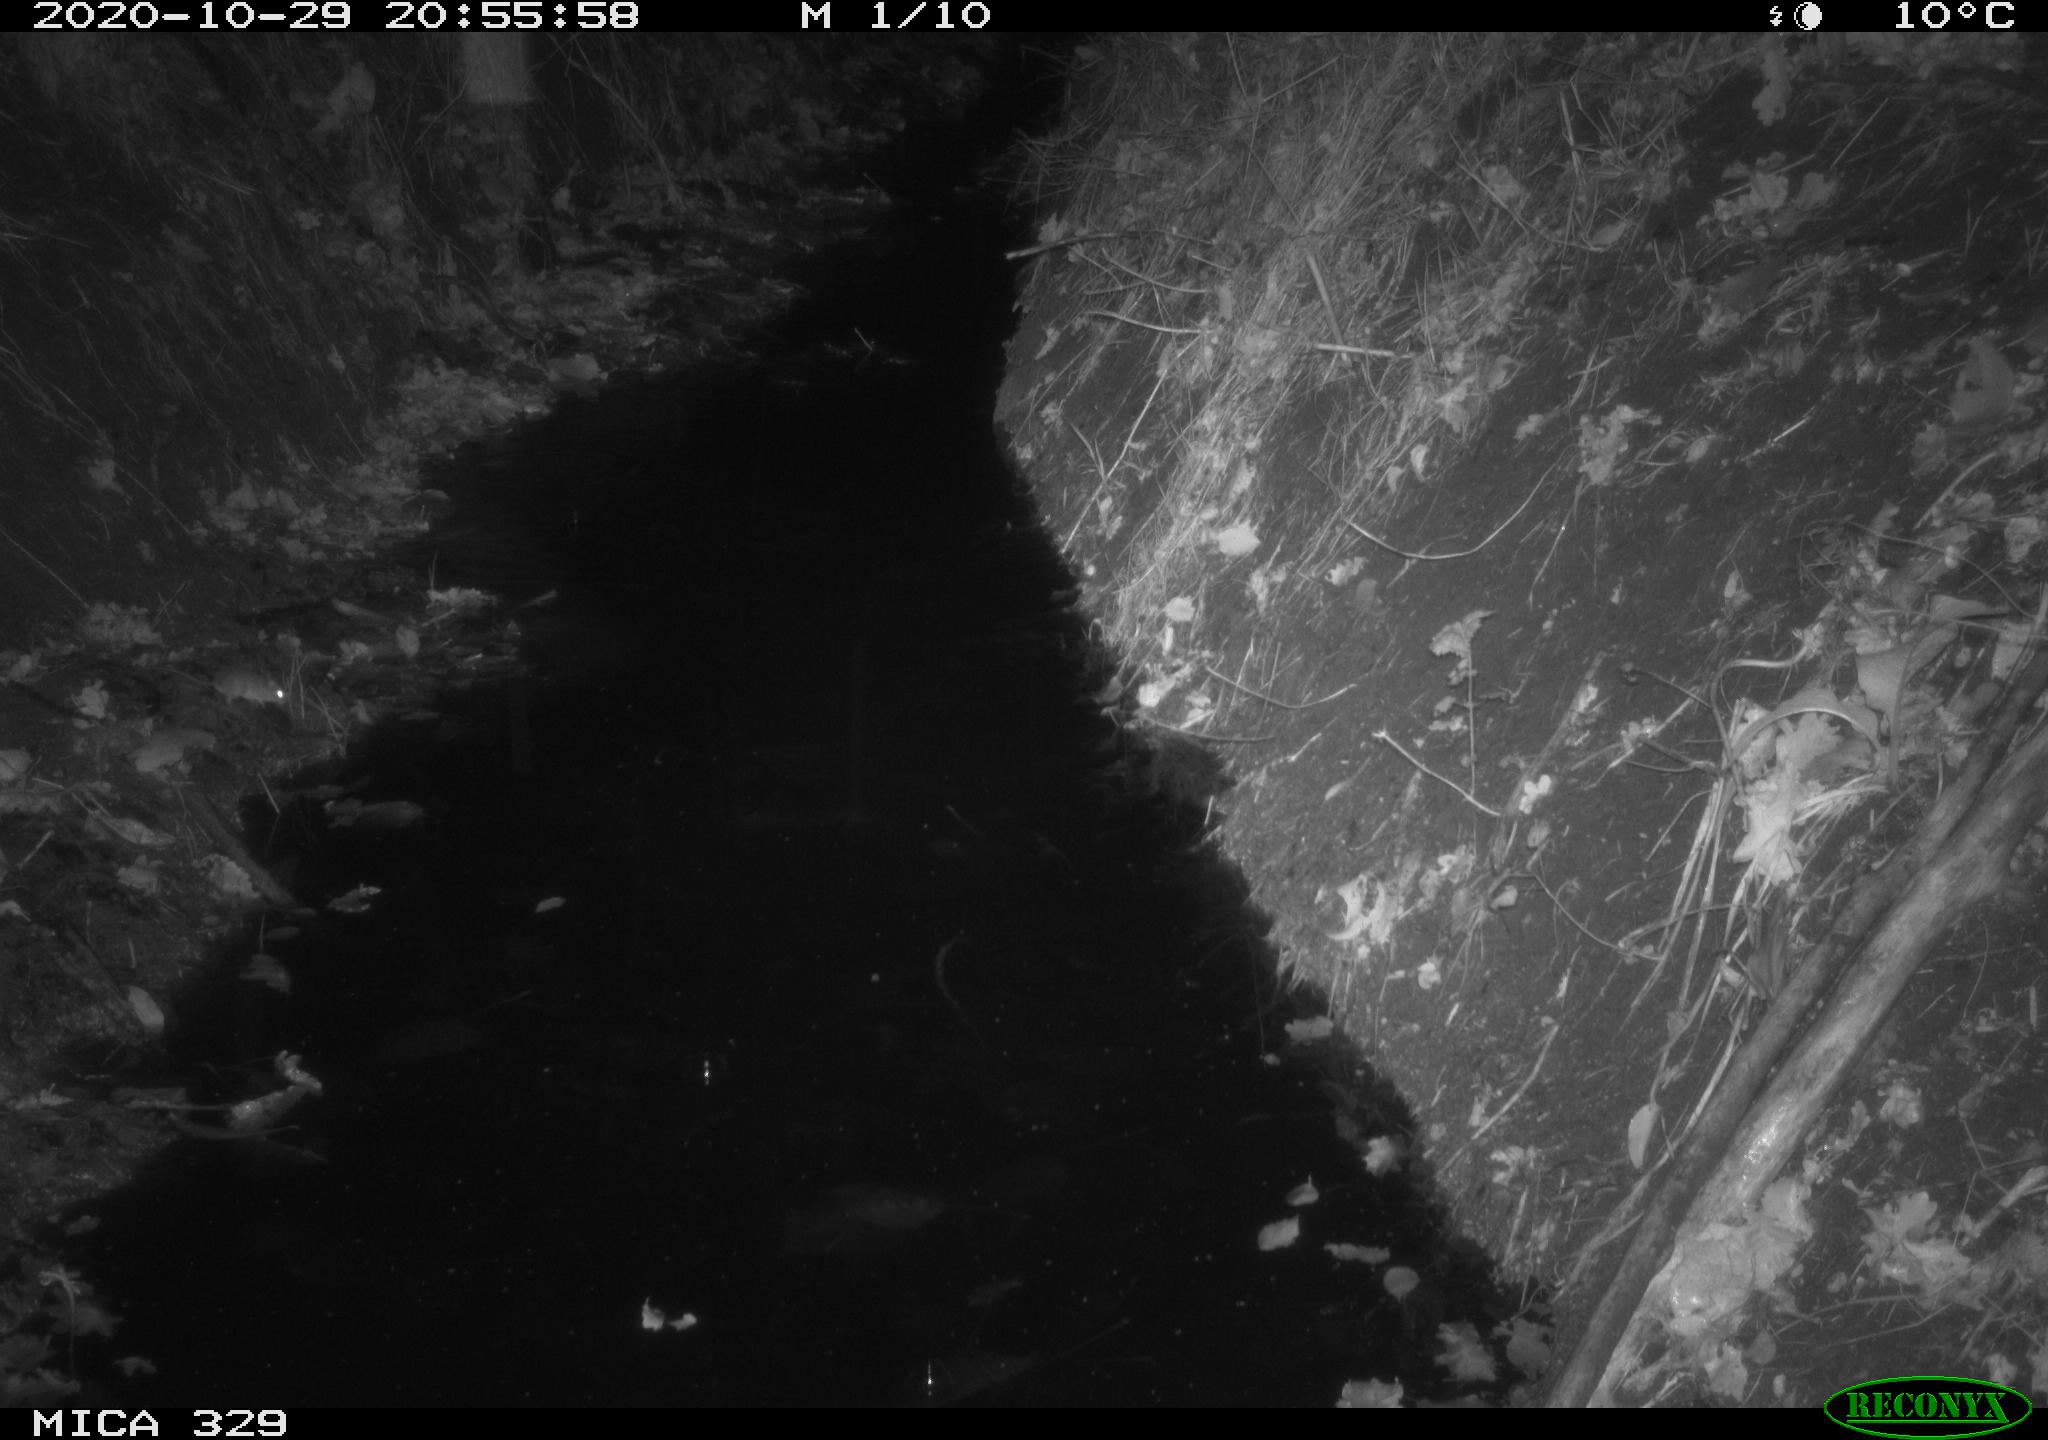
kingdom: Animalia
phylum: Chordata
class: Mammalia
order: Rodentia
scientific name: Rodentia
